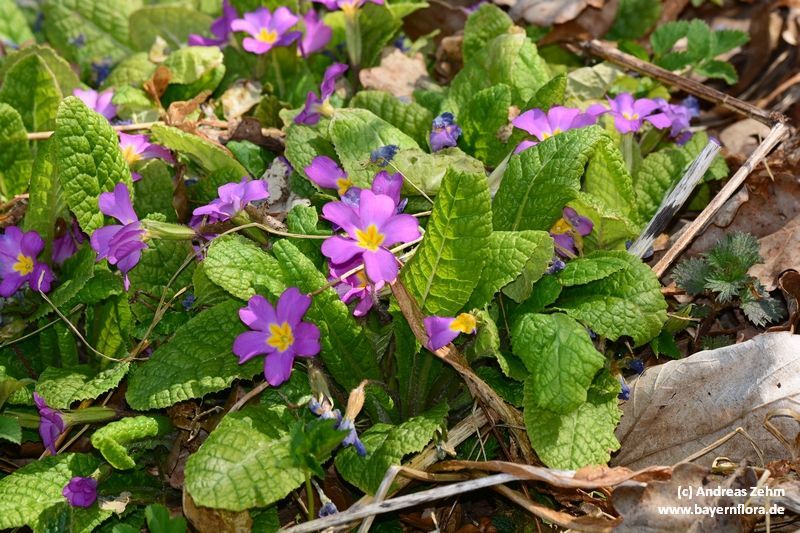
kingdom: Plantae
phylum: Tracheophyta
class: Magnoliopsida
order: Ericales
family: Primulaceae
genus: Primula
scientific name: Primula vulgaris
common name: Primrose
